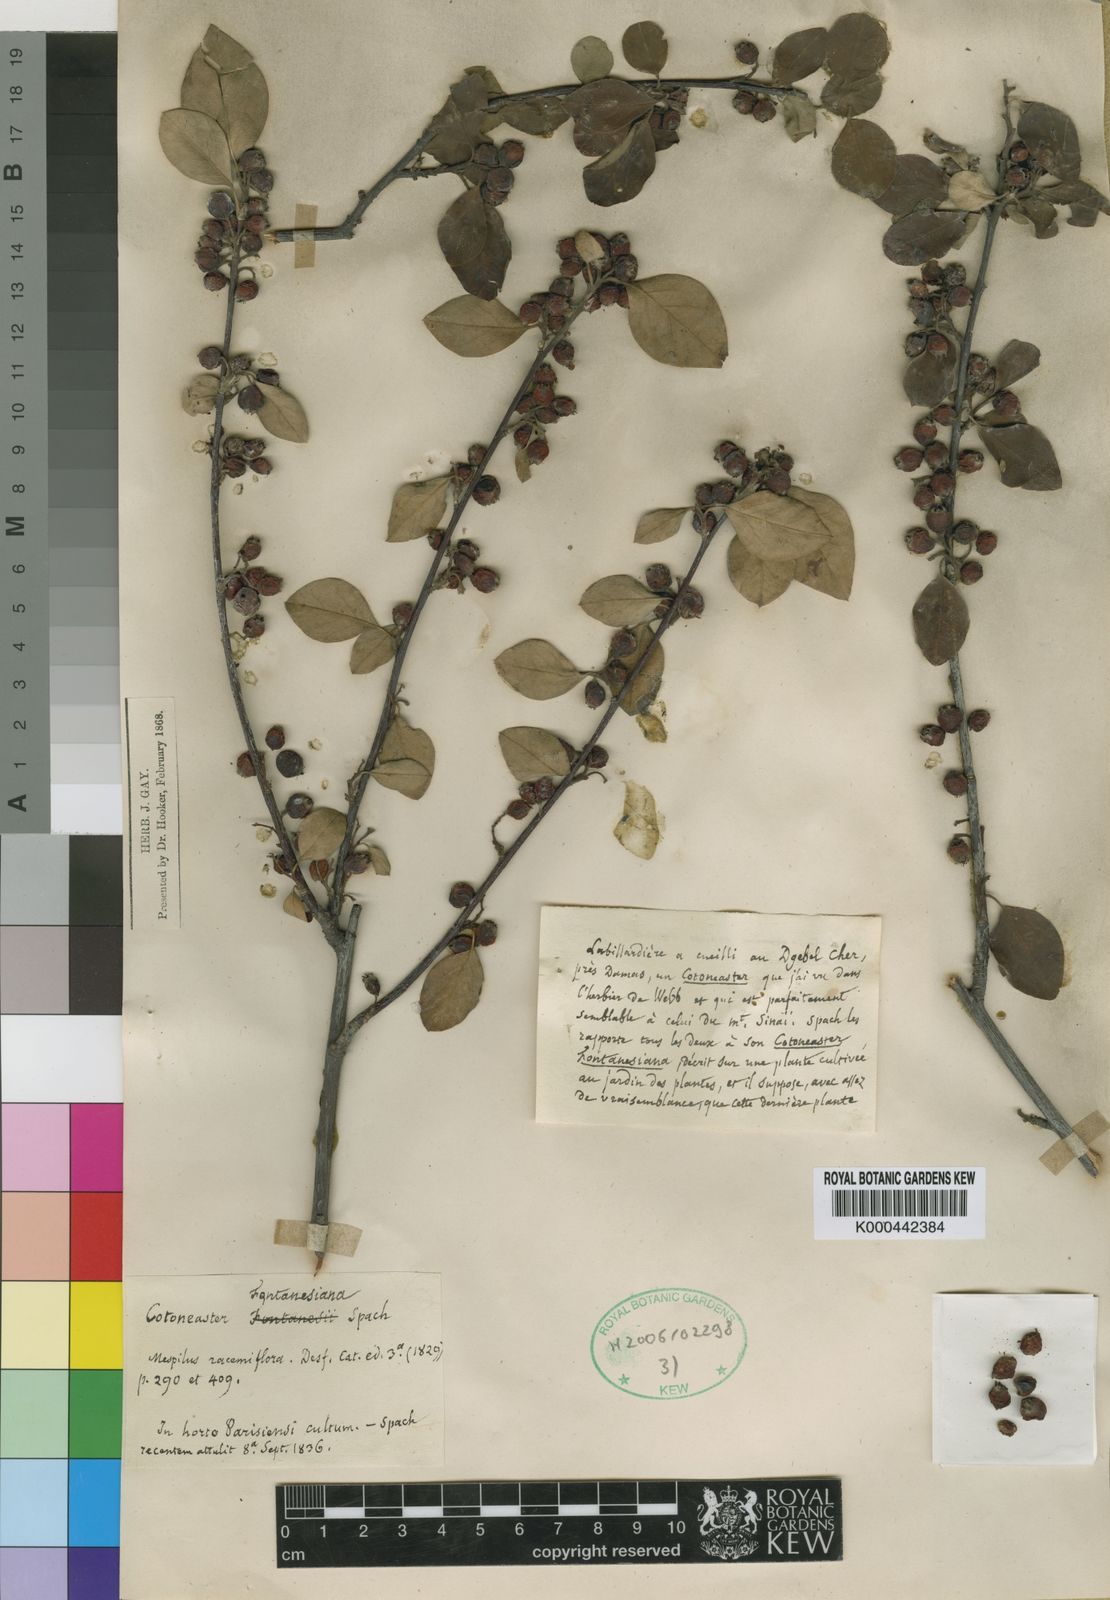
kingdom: Plantae
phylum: Tracheophyta
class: Magnoliopsida
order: Rosales
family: Rosaceae
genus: Cotoneaster
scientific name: Cotoneaster
